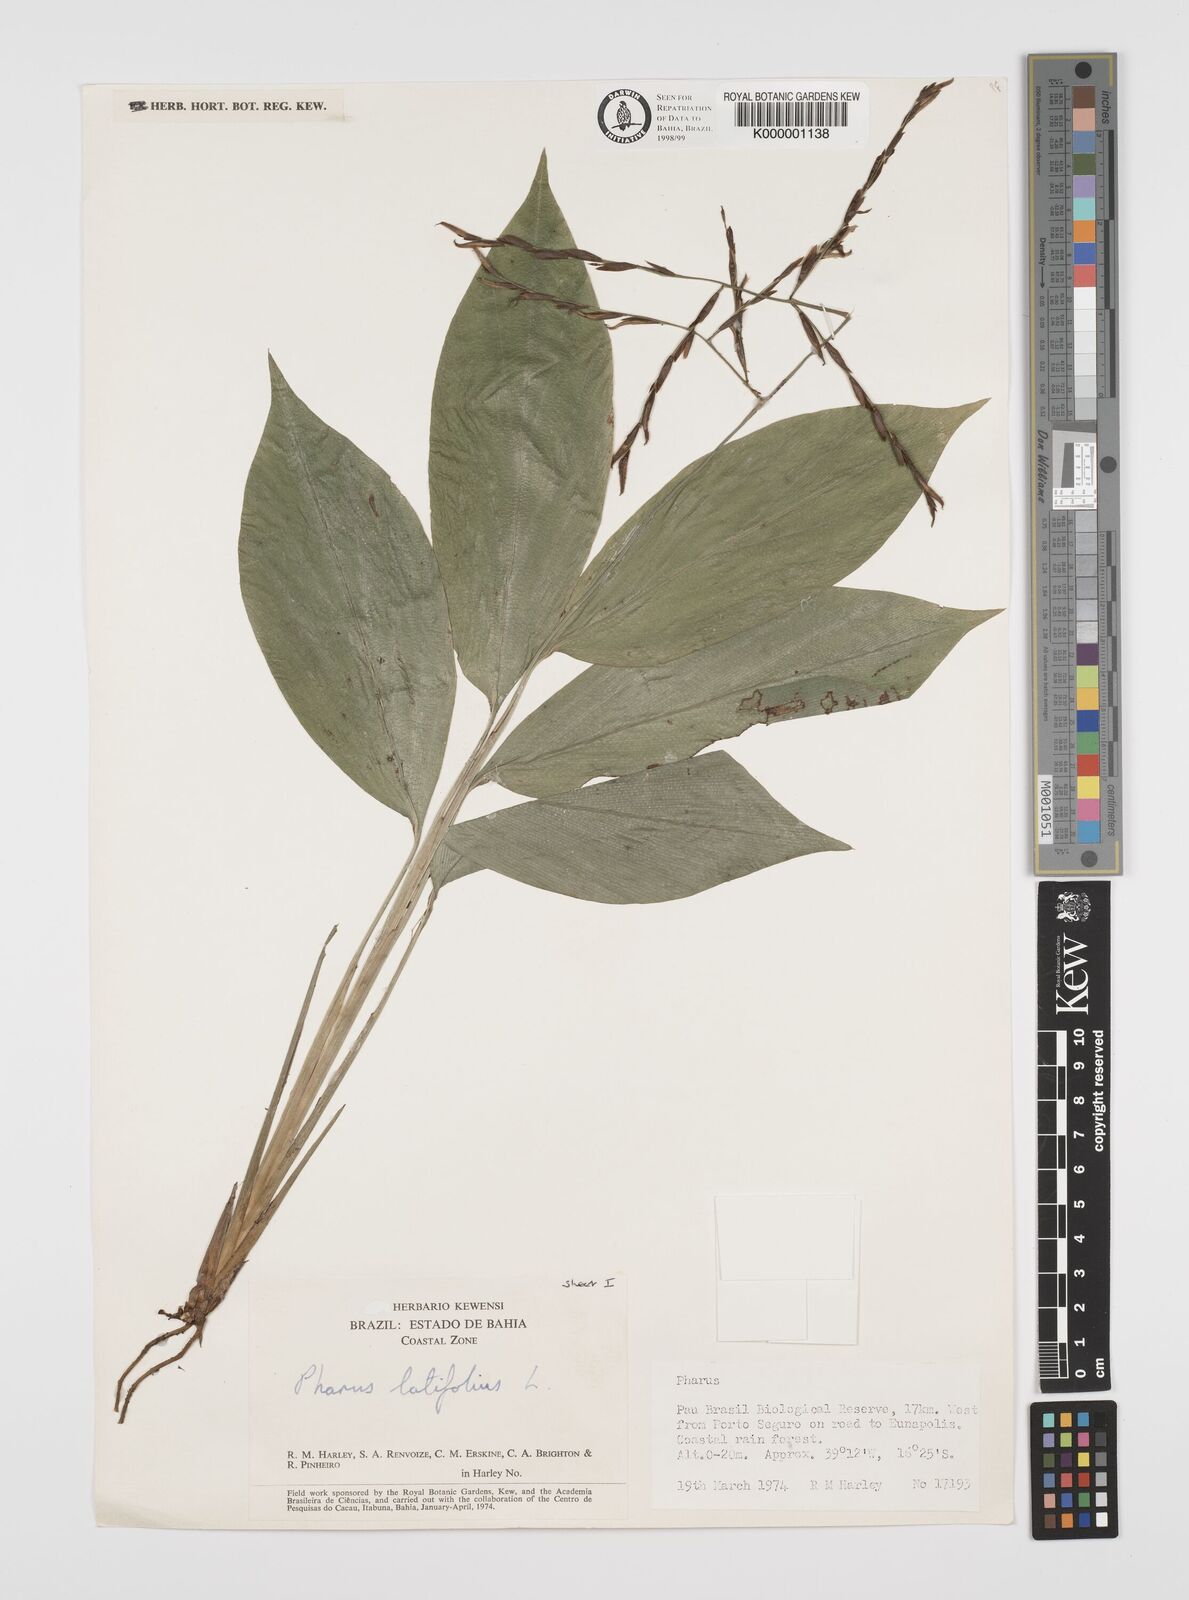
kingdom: Plantae
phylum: Tracheophyta
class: Liliopsida
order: Poales
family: Poaceae
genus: Pharus
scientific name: Pharus latifolius
